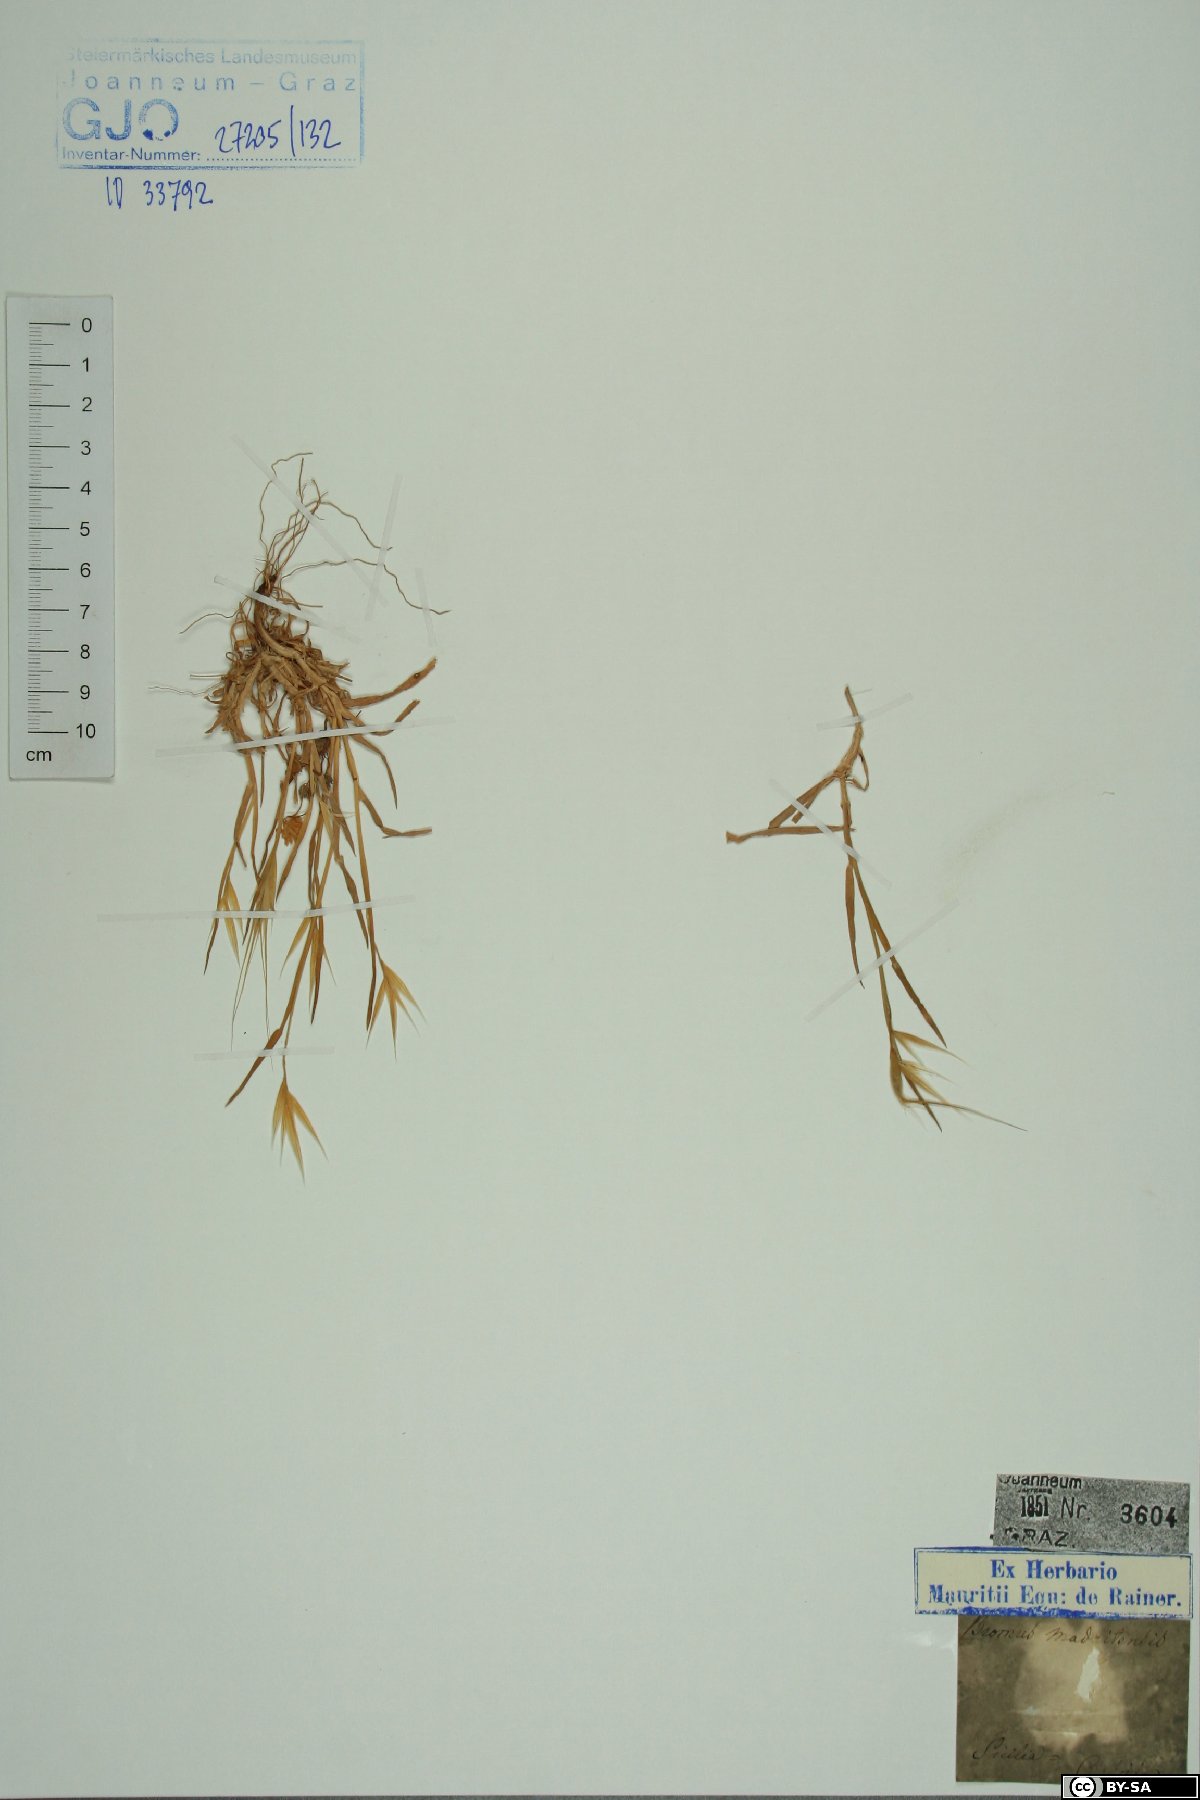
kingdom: Plantae
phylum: Tracheophyta
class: Liliopsida
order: Poales
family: Poaceae
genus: Bromus
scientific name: Bromus madritensis
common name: Compact brome
